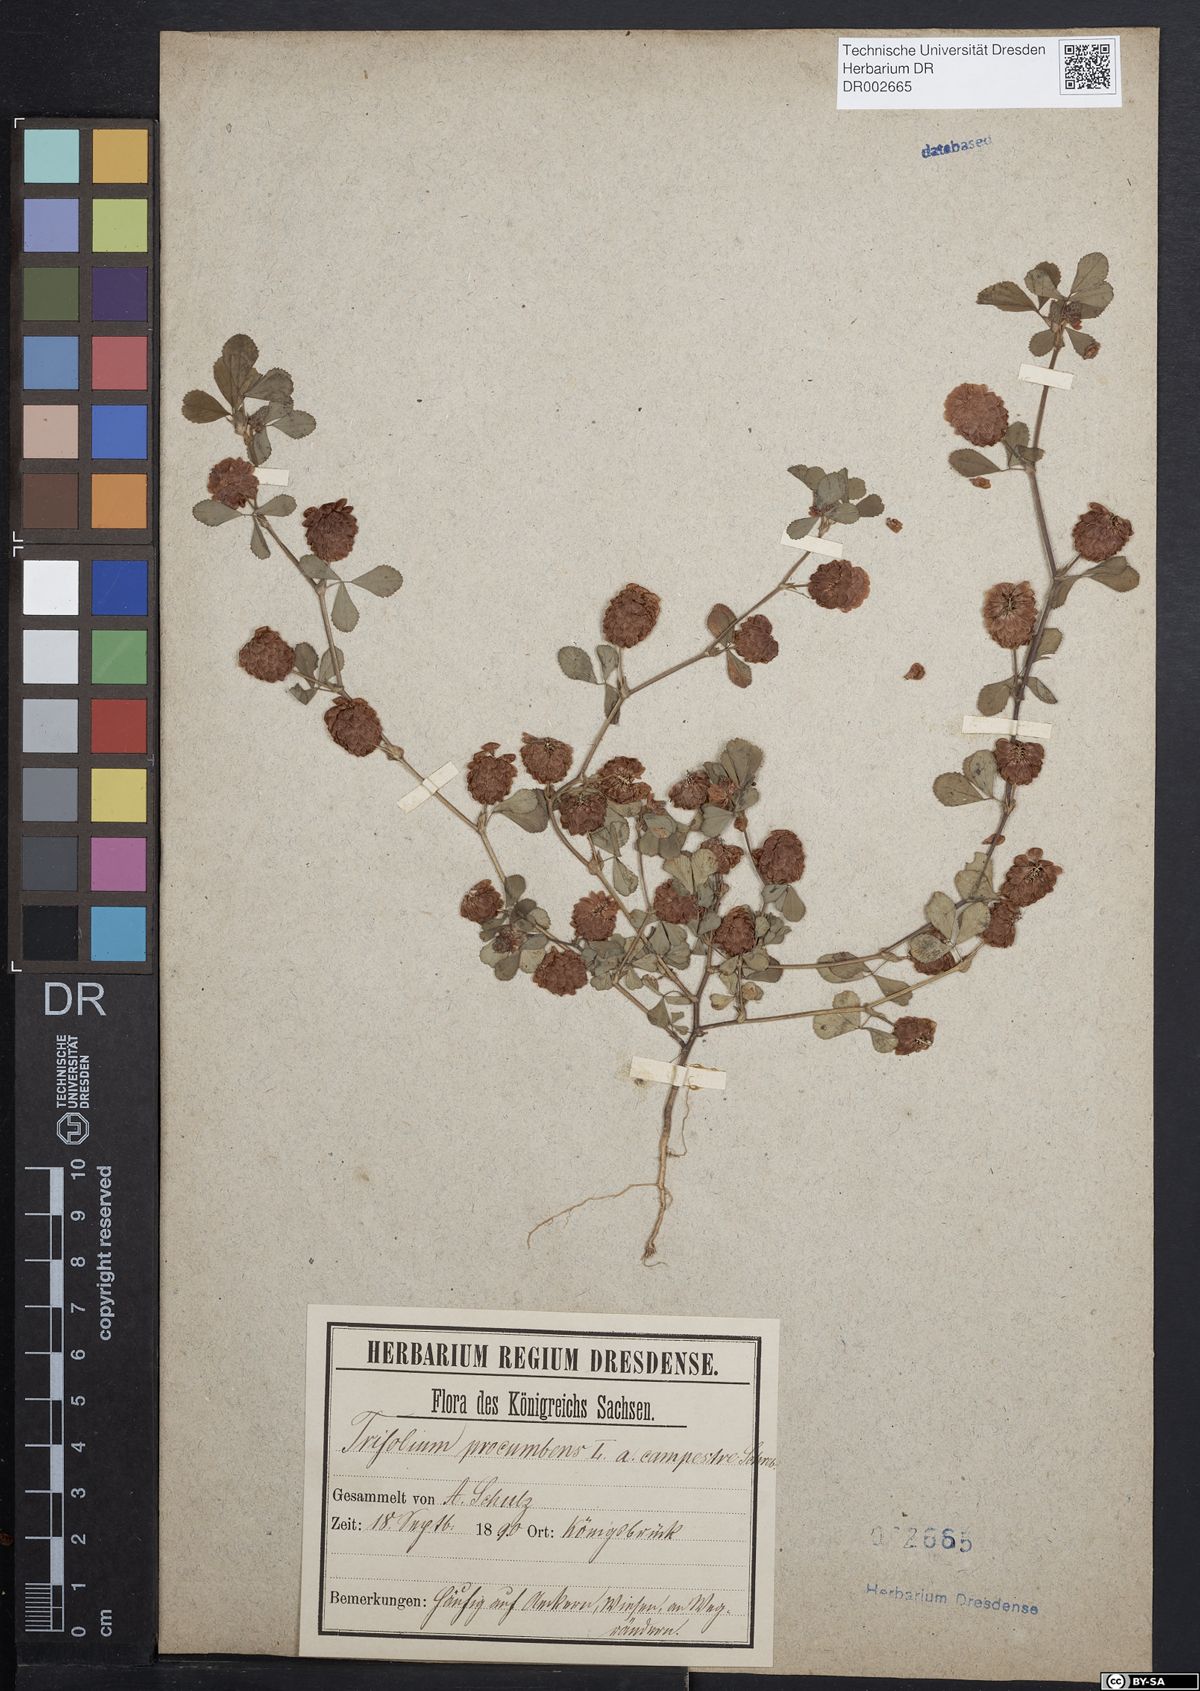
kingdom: Plantae
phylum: Tracheophyta
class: Magnoliopsida
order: Fabales
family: Fabaceae
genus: Trifolium
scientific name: Trifolium campestre
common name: Field clover
